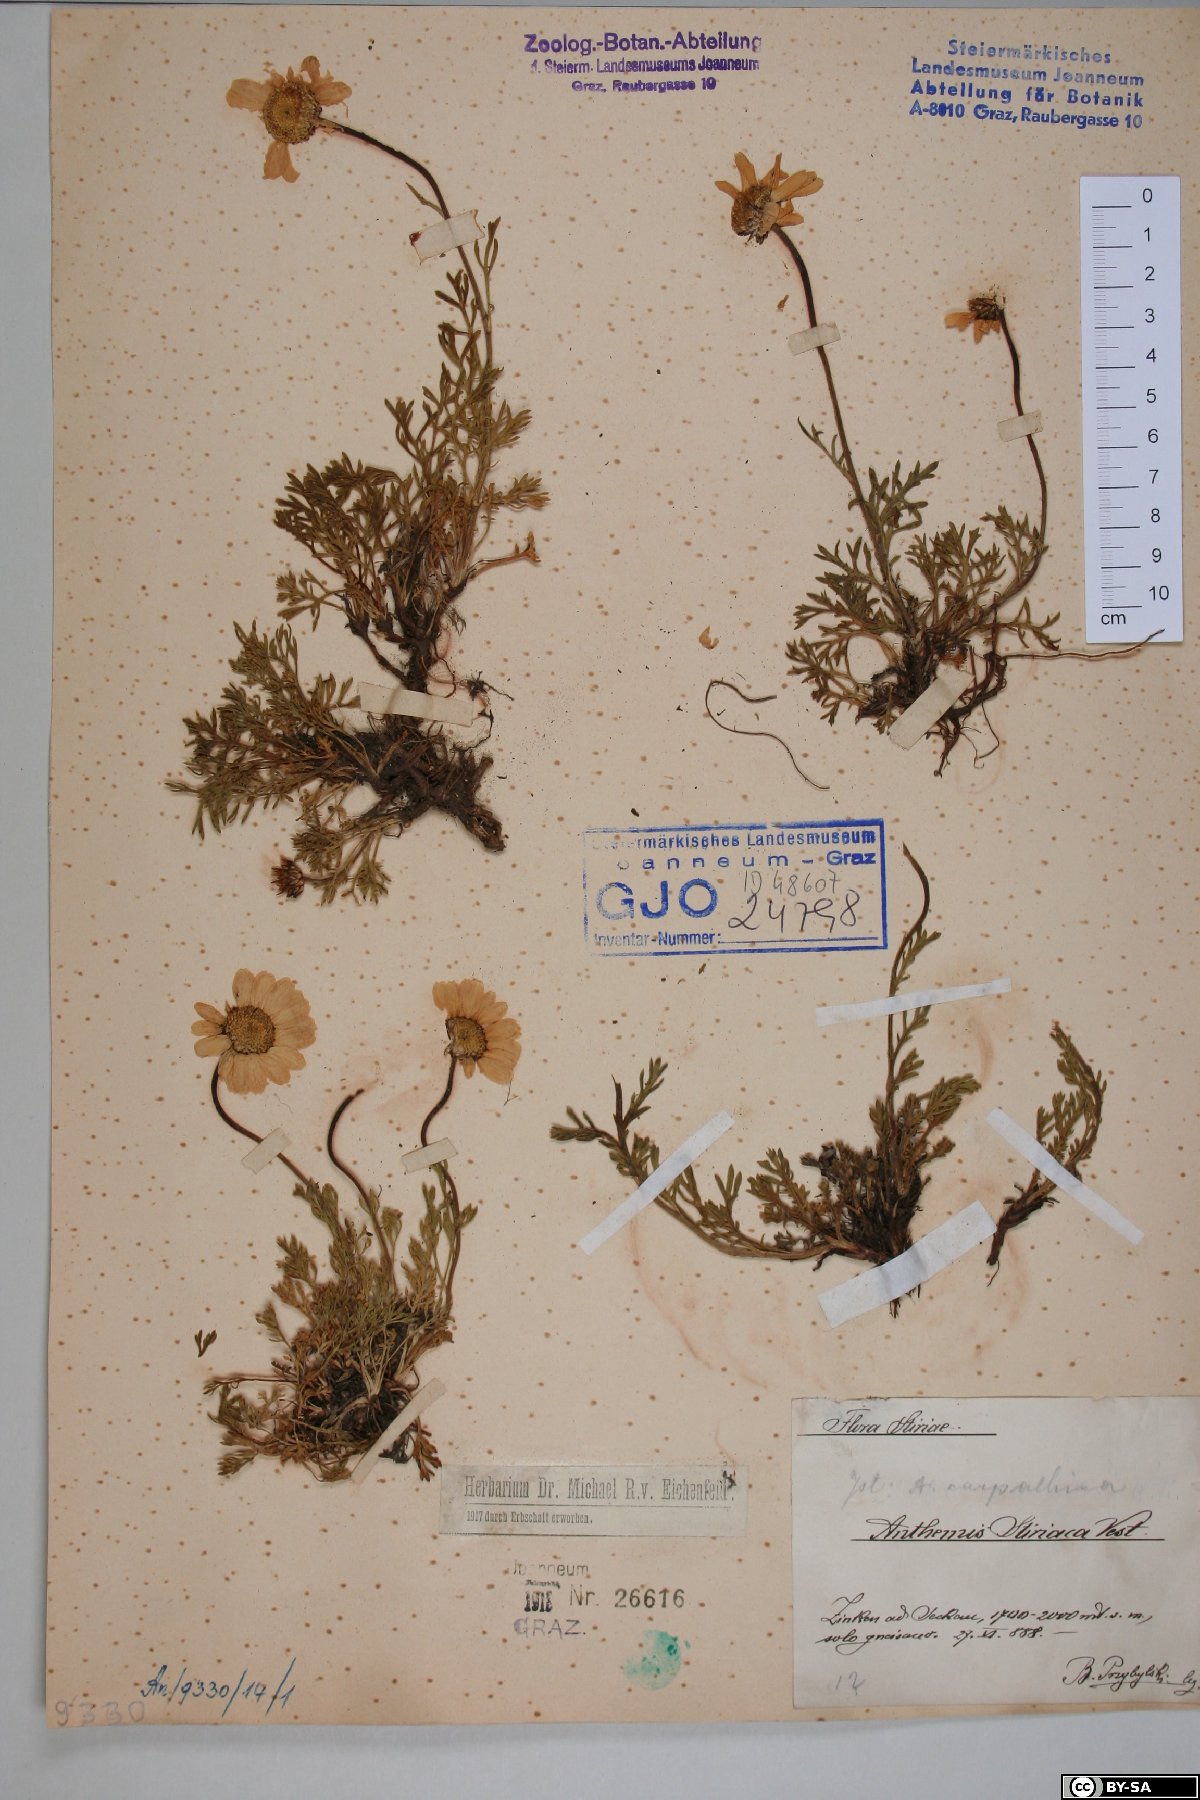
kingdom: Plantae
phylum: Tracheophyta
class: Magnoliopsida
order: Asterales
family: Asteraceae
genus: Anthemis
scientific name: Anthemis cretica
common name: Mountain dog-daisy
